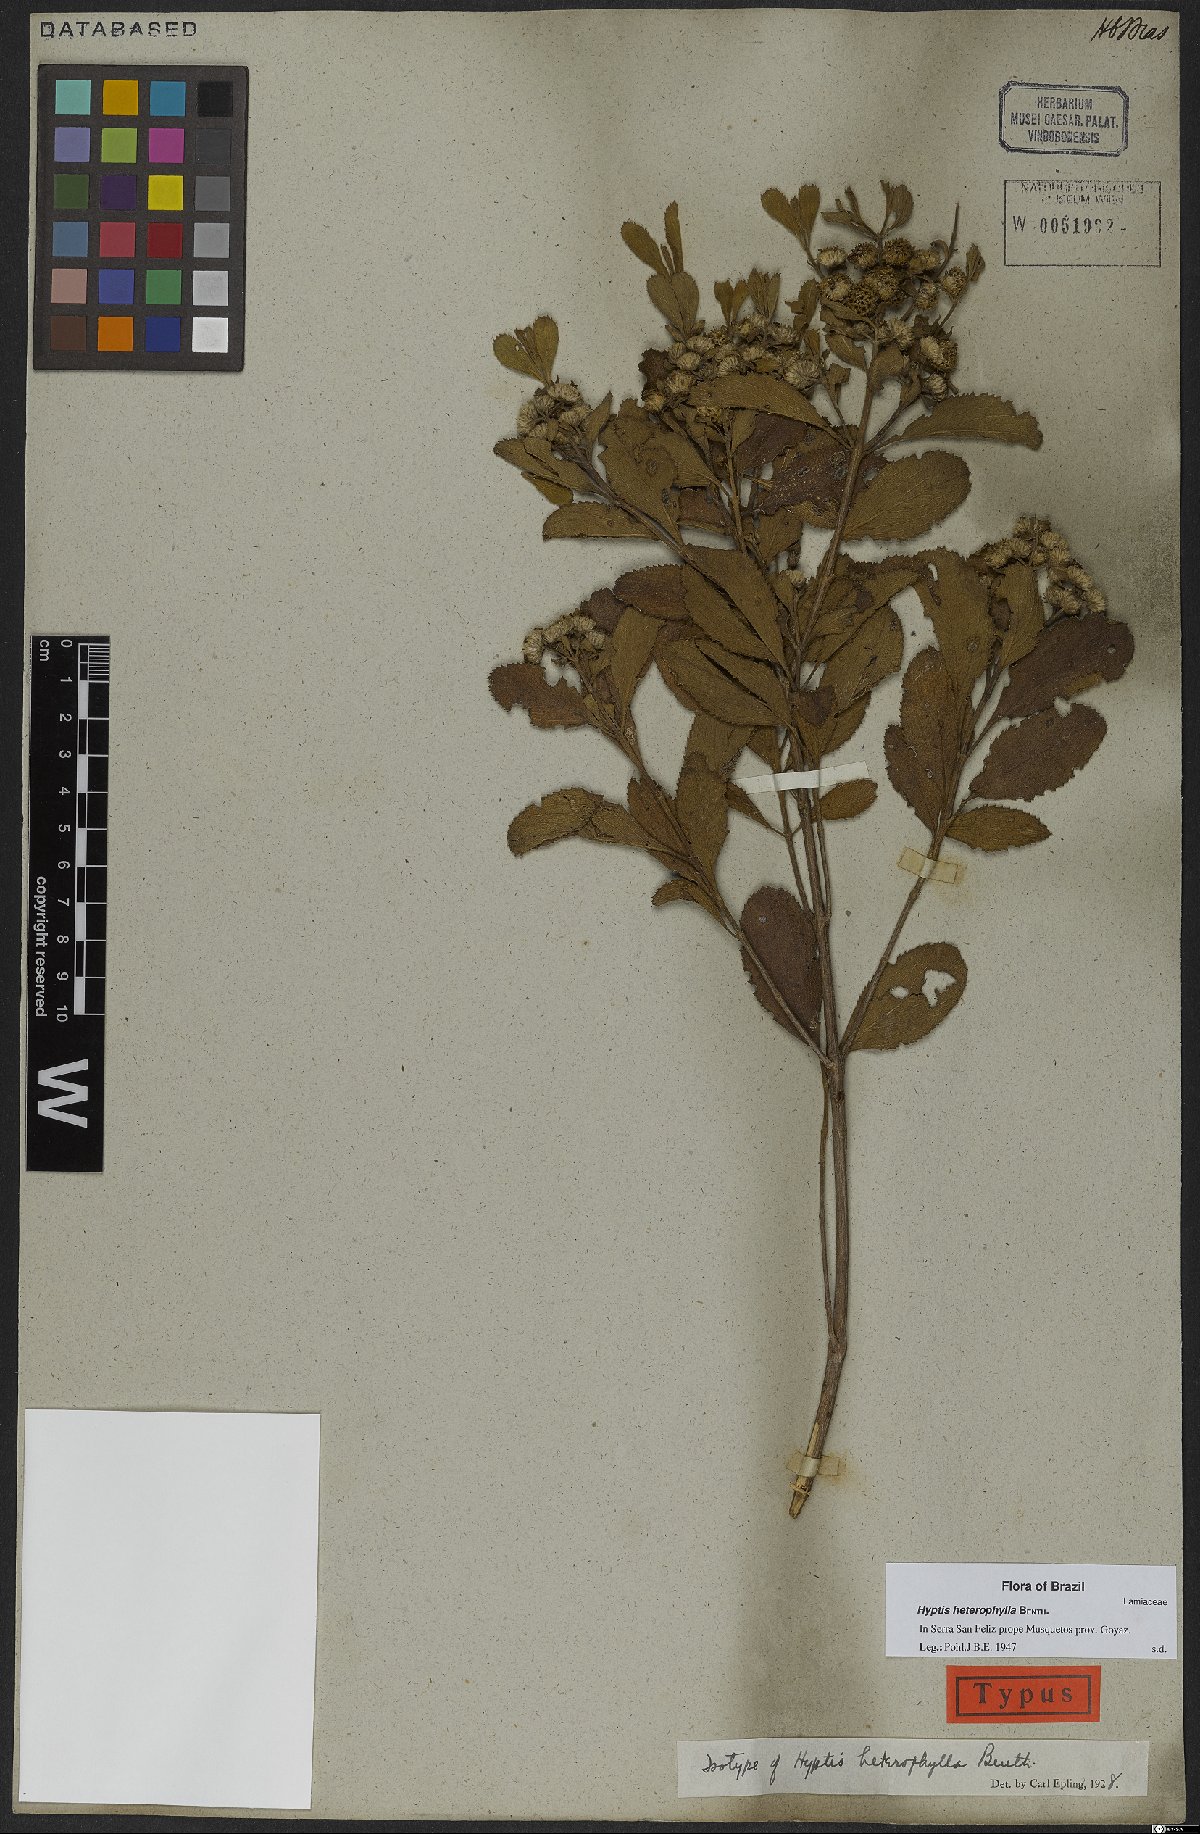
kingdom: Plantae
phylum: Tracheophyta
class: Magnoliopsida
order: Lamiales
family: Lamiaceae
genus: Hyptis
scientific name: Hyptis heterophylla
